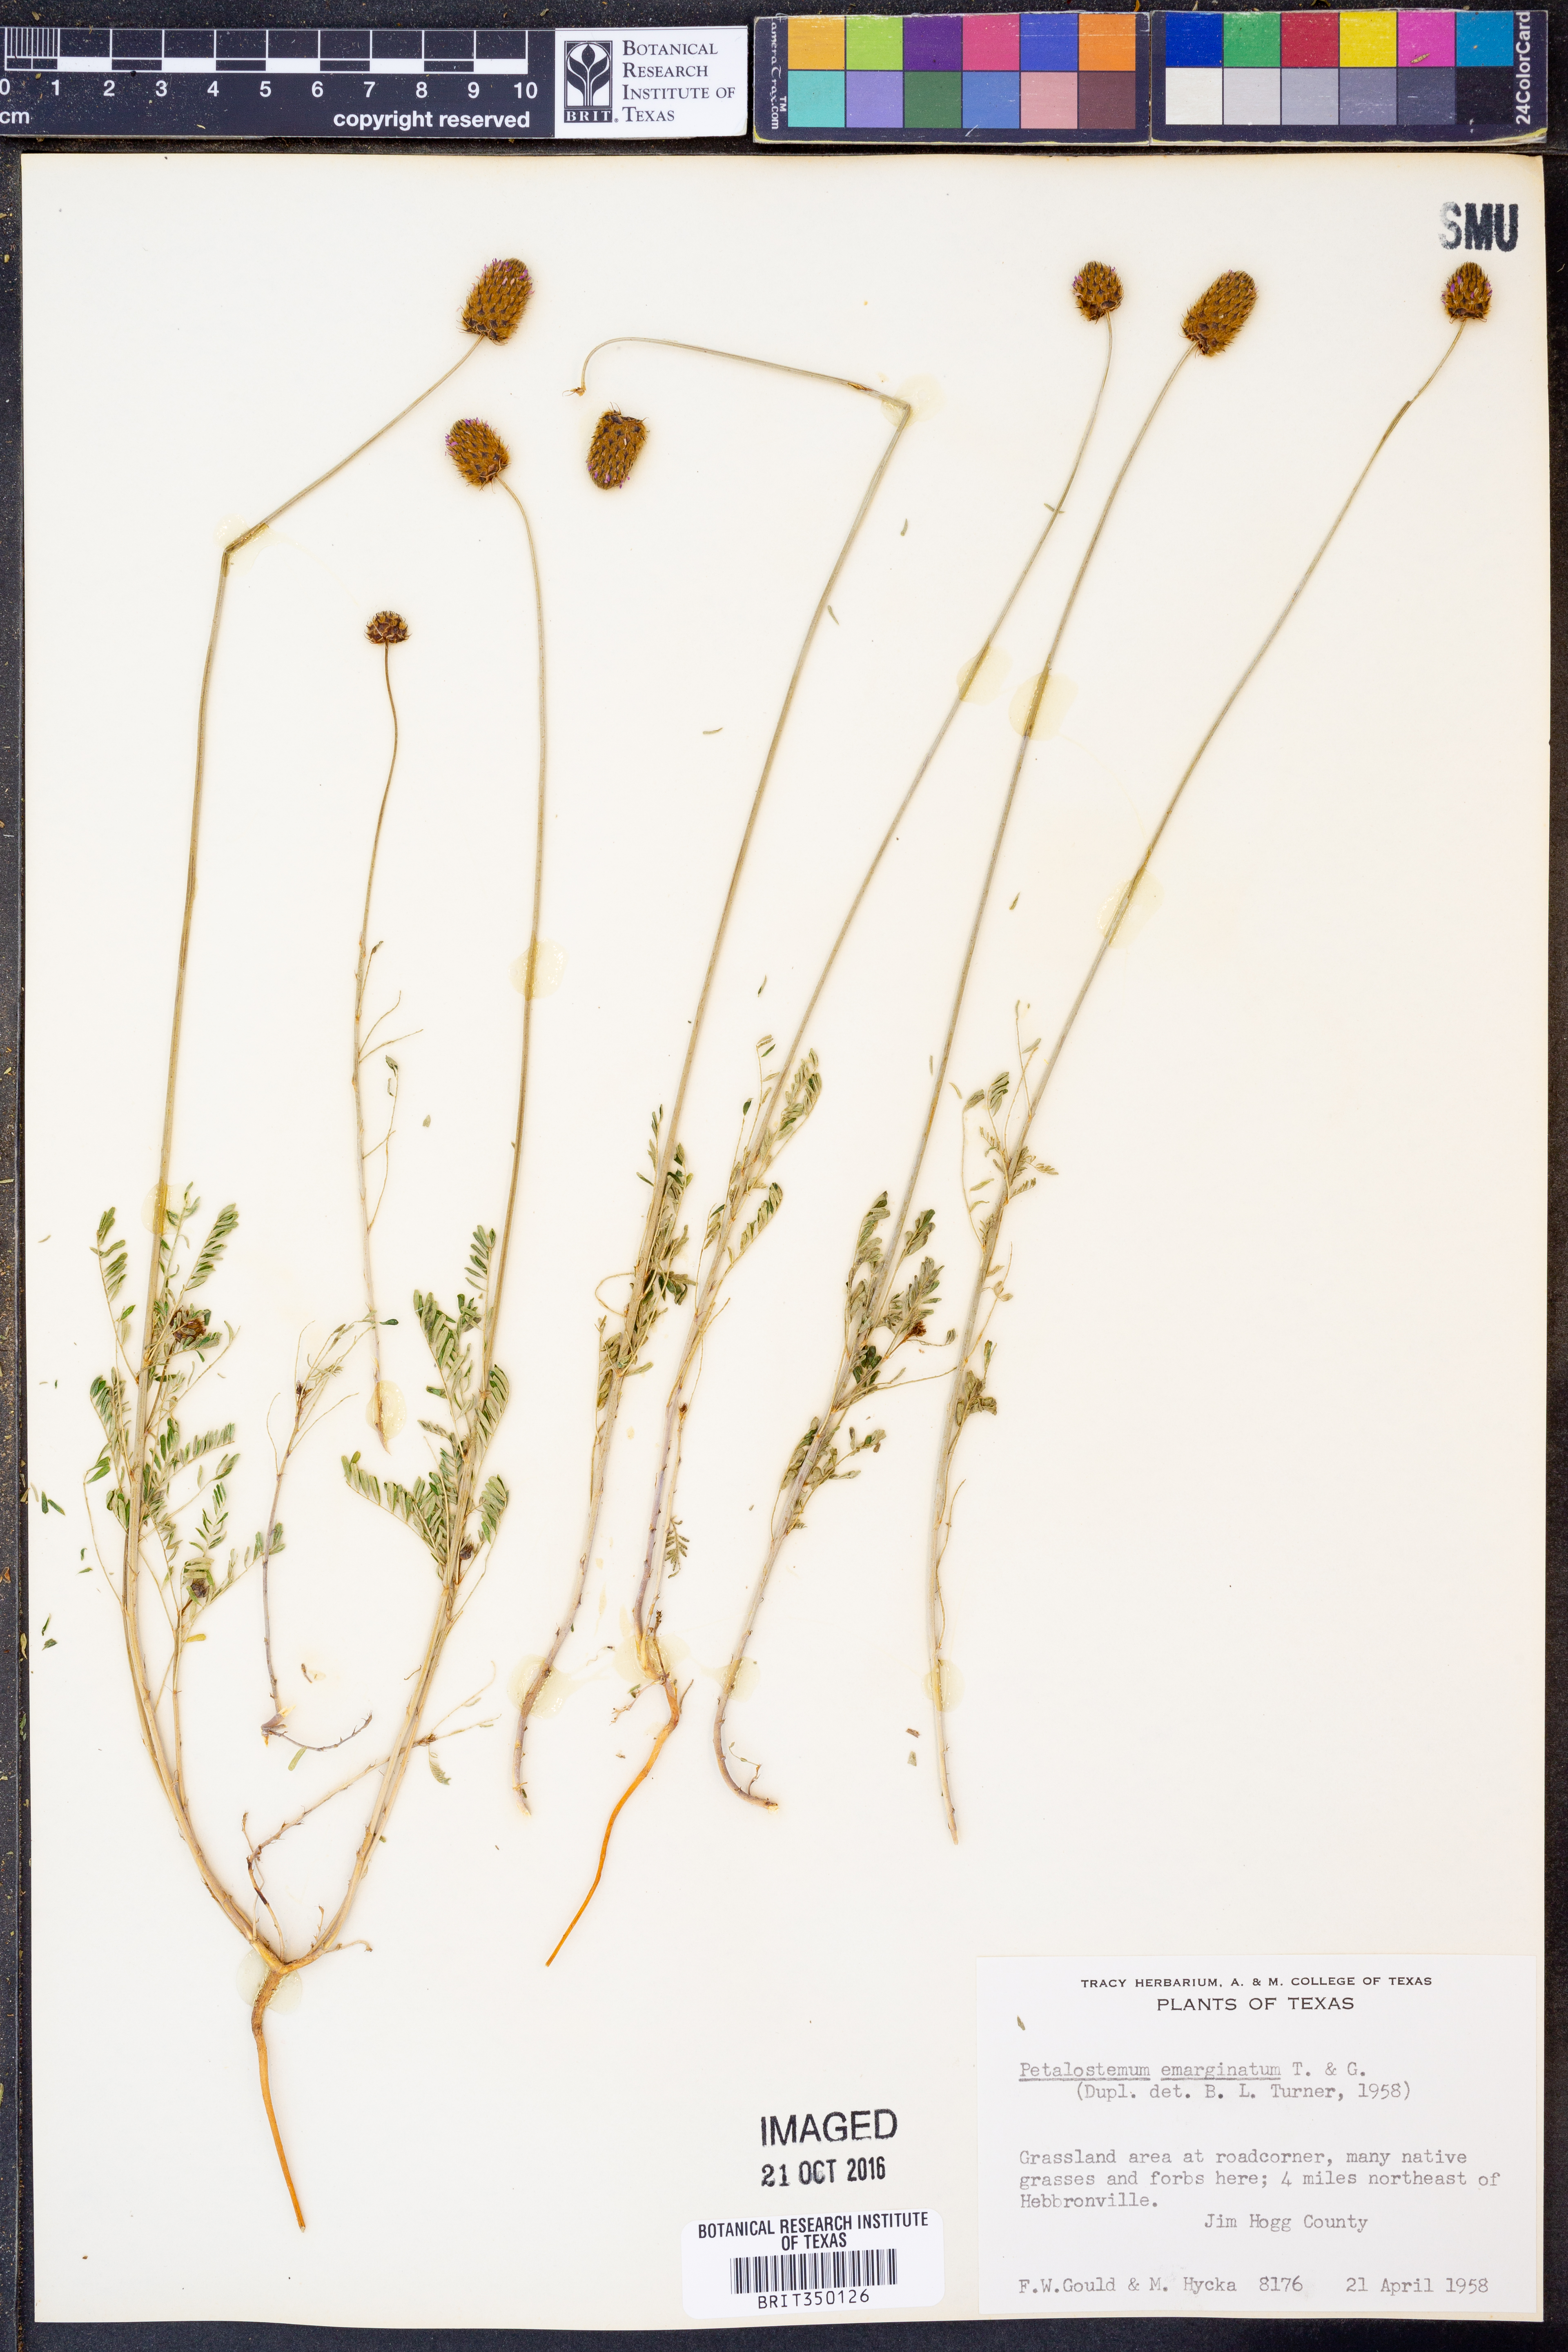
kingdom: Plantae
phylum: Tracheophyta
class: Magnoliopsida
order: Fabales
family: Fabaceae
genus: Dalea
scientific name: Dalea emarginata
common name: Wedgeleaf prairie clover
